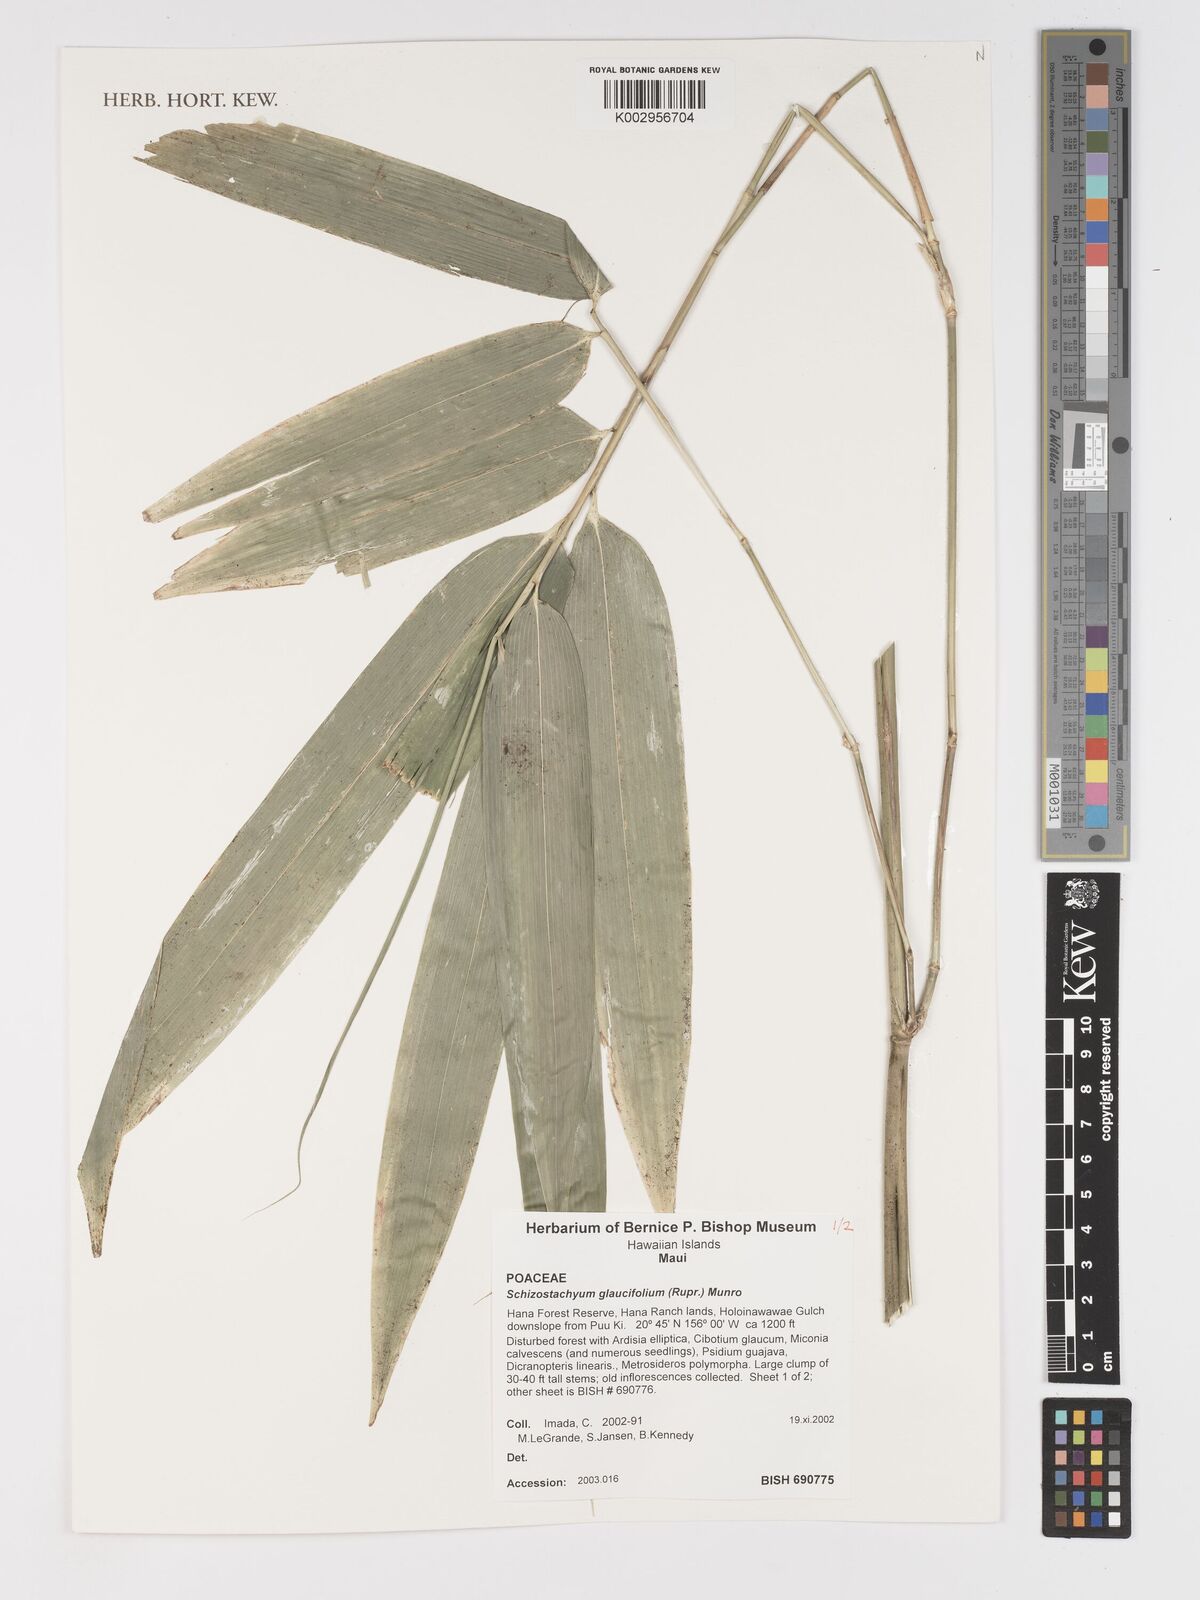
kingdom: Plantae
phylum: Tracheophyta
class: Liliopsida
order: Poales
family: Poaceae
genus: Schizostachyum
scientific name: Schizostachyum glaucifolium
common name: Polynesian 'ohe
